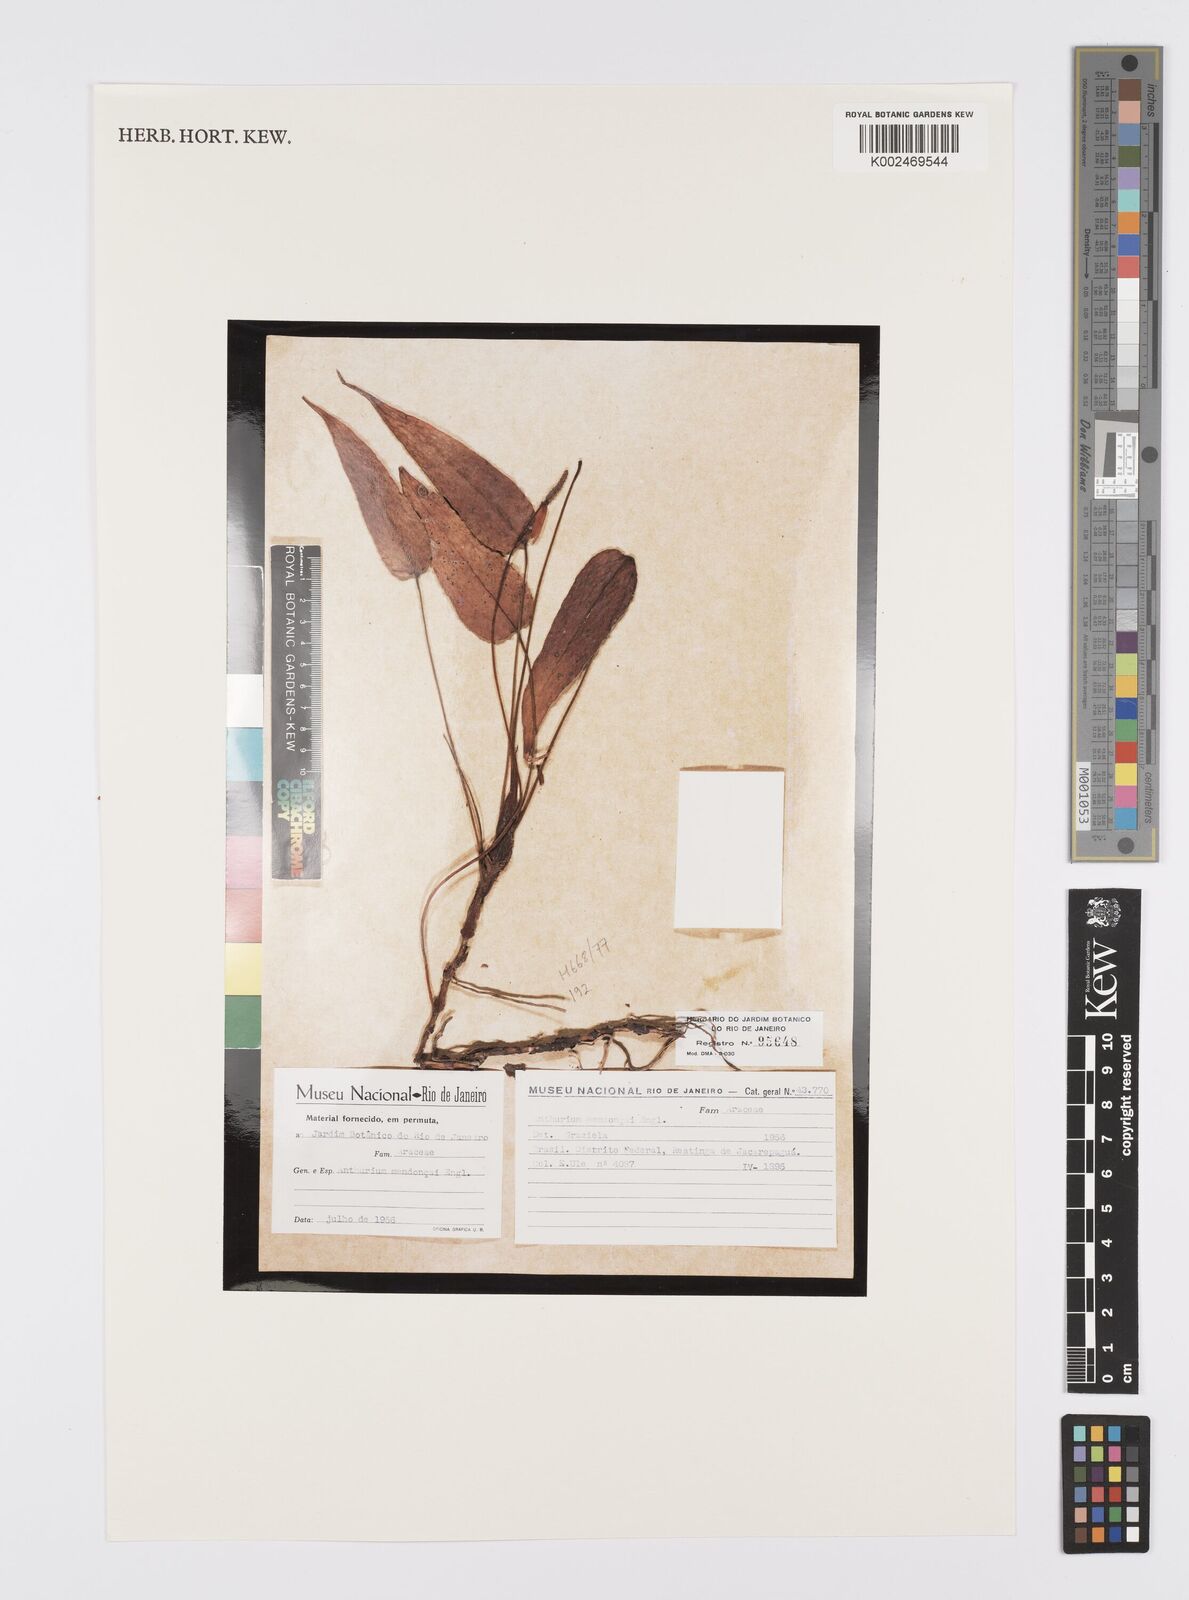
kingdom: Plantae
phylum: Tracheophyta
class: Liliopsida
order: Alismatales
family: Araceae
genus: Anthurium
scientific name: Anthurium parvum
